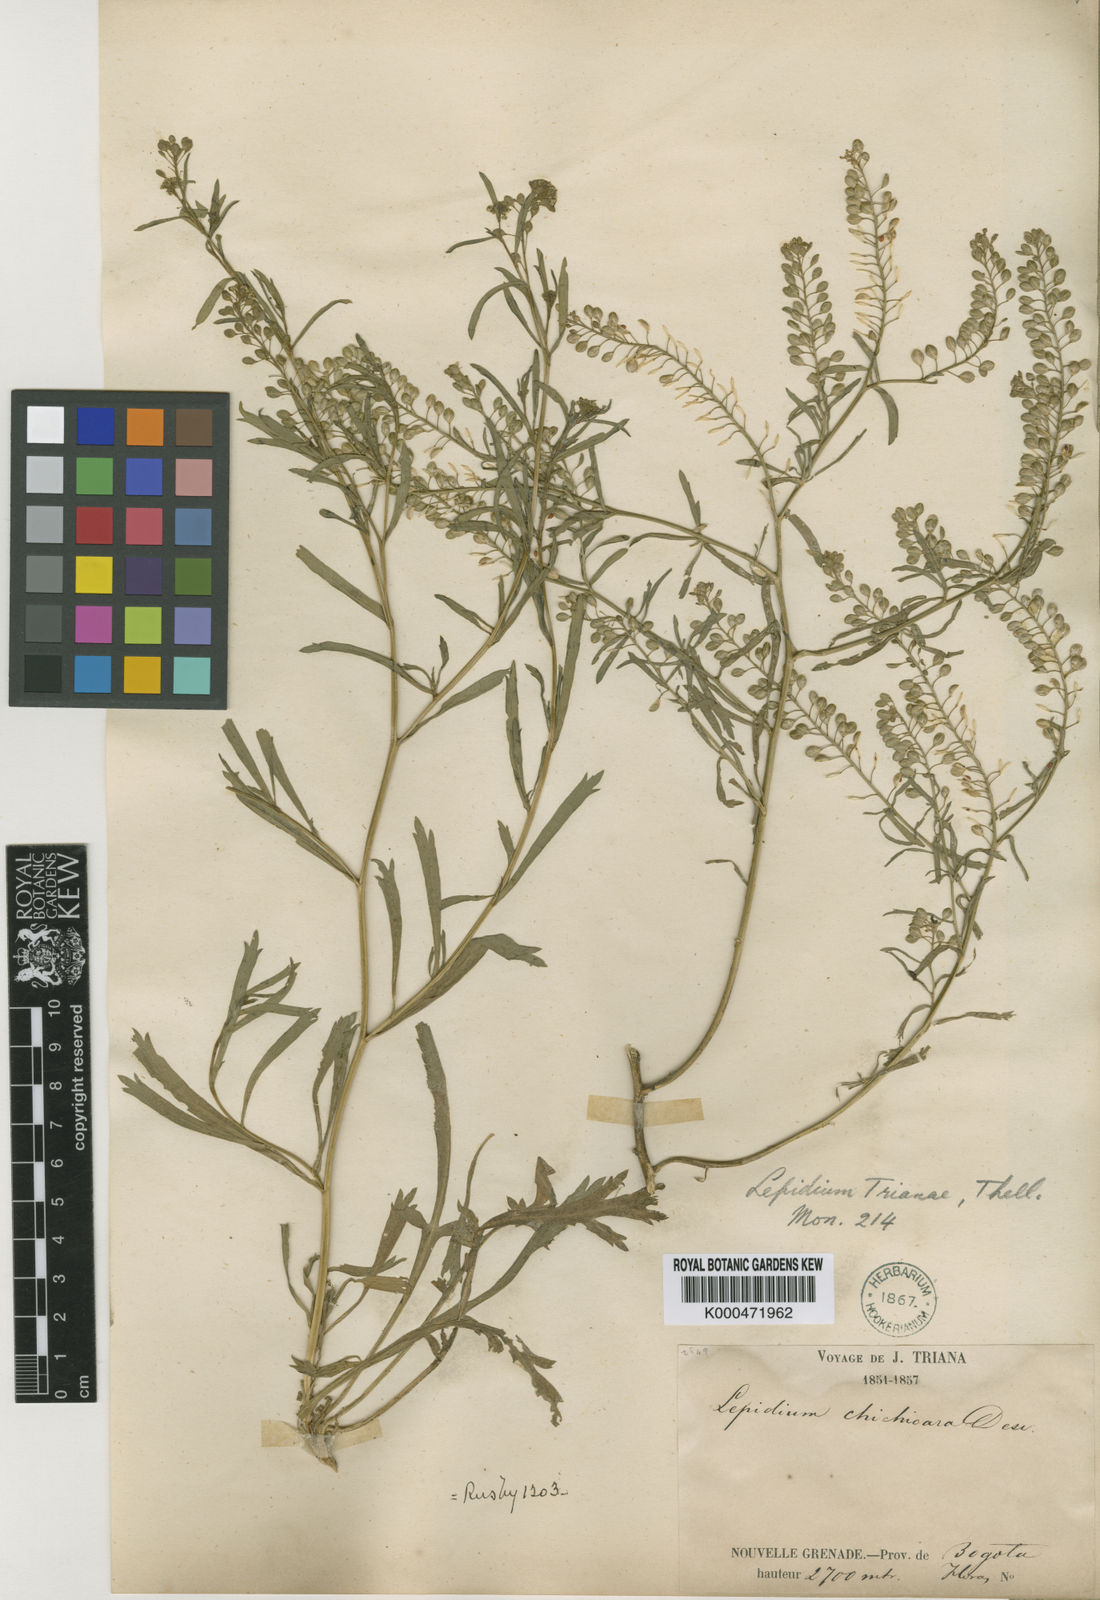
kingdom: Plantae
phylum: Tracheophyta
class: Magnoliopsida
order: Brassicales
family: Brassicaceae
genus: Lepidium
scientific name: Lepidium trianae
